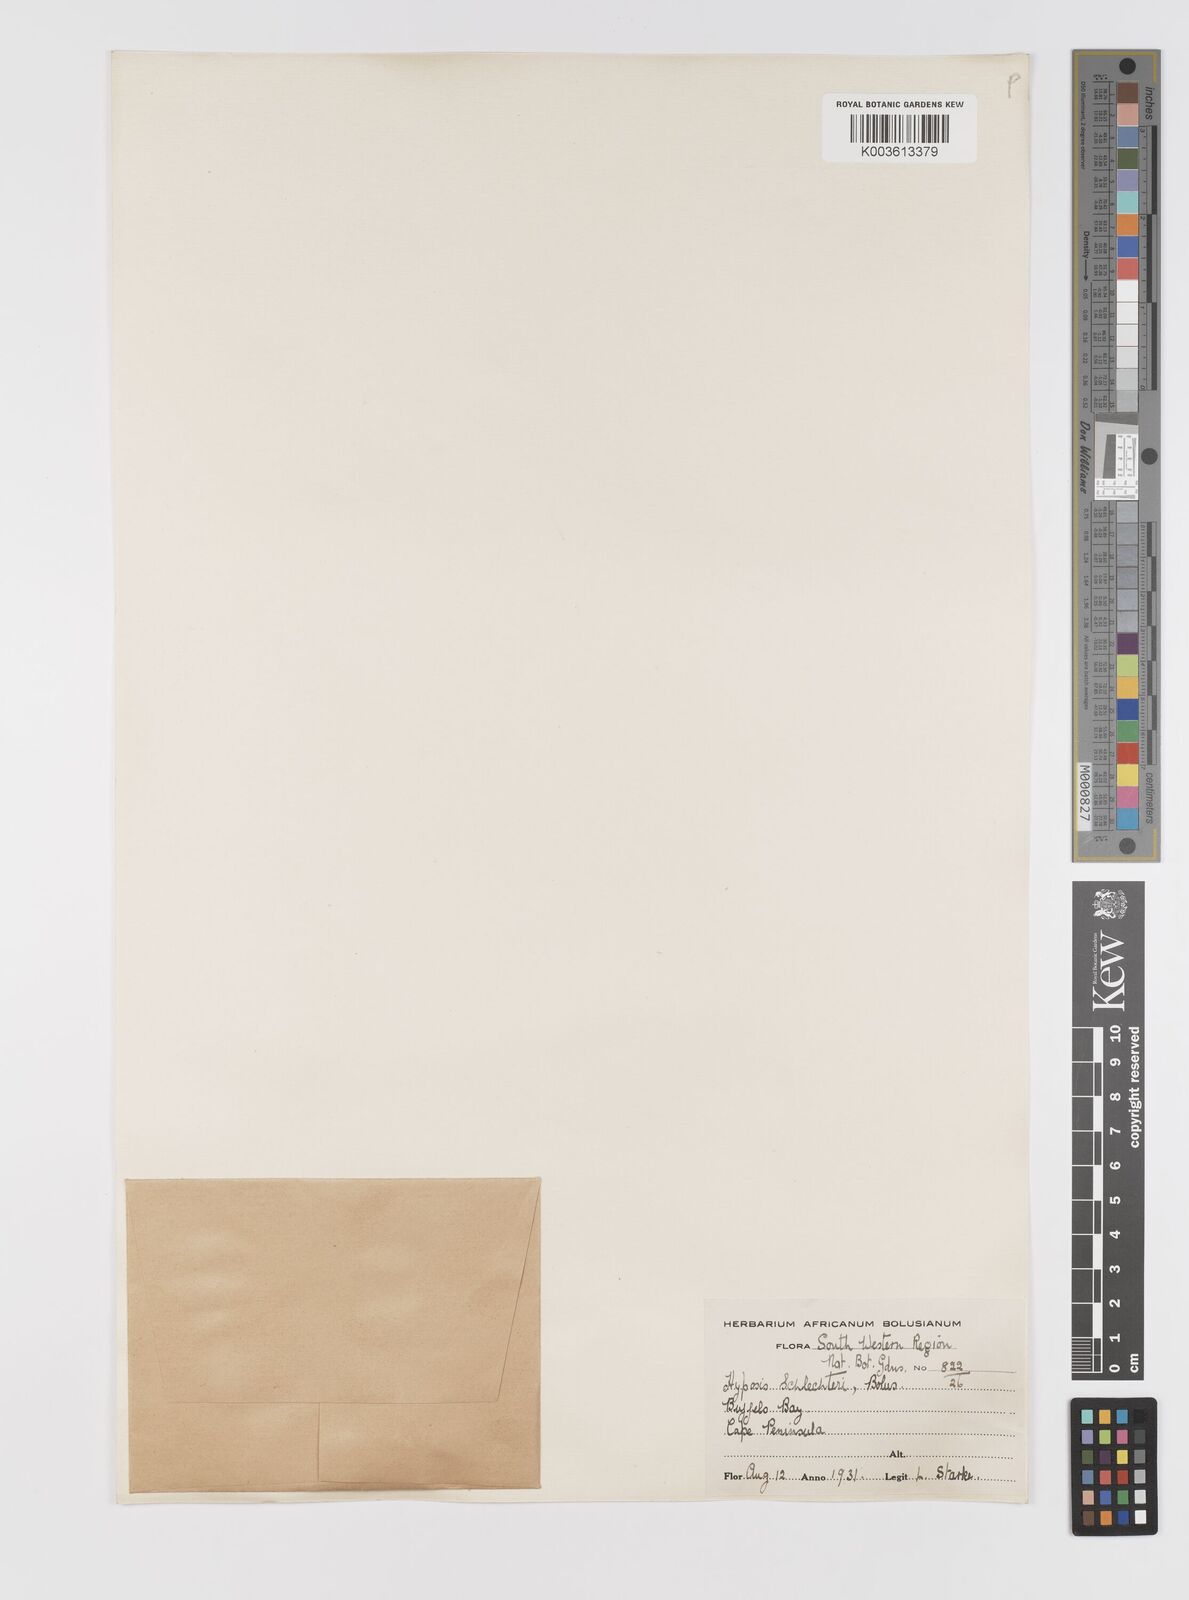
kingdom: Plantae
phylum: Tracheophyta
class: Liliopsida
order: Asparagales
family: Hypoxidaceae
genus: Pauridia
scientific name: Pauridia affinis
